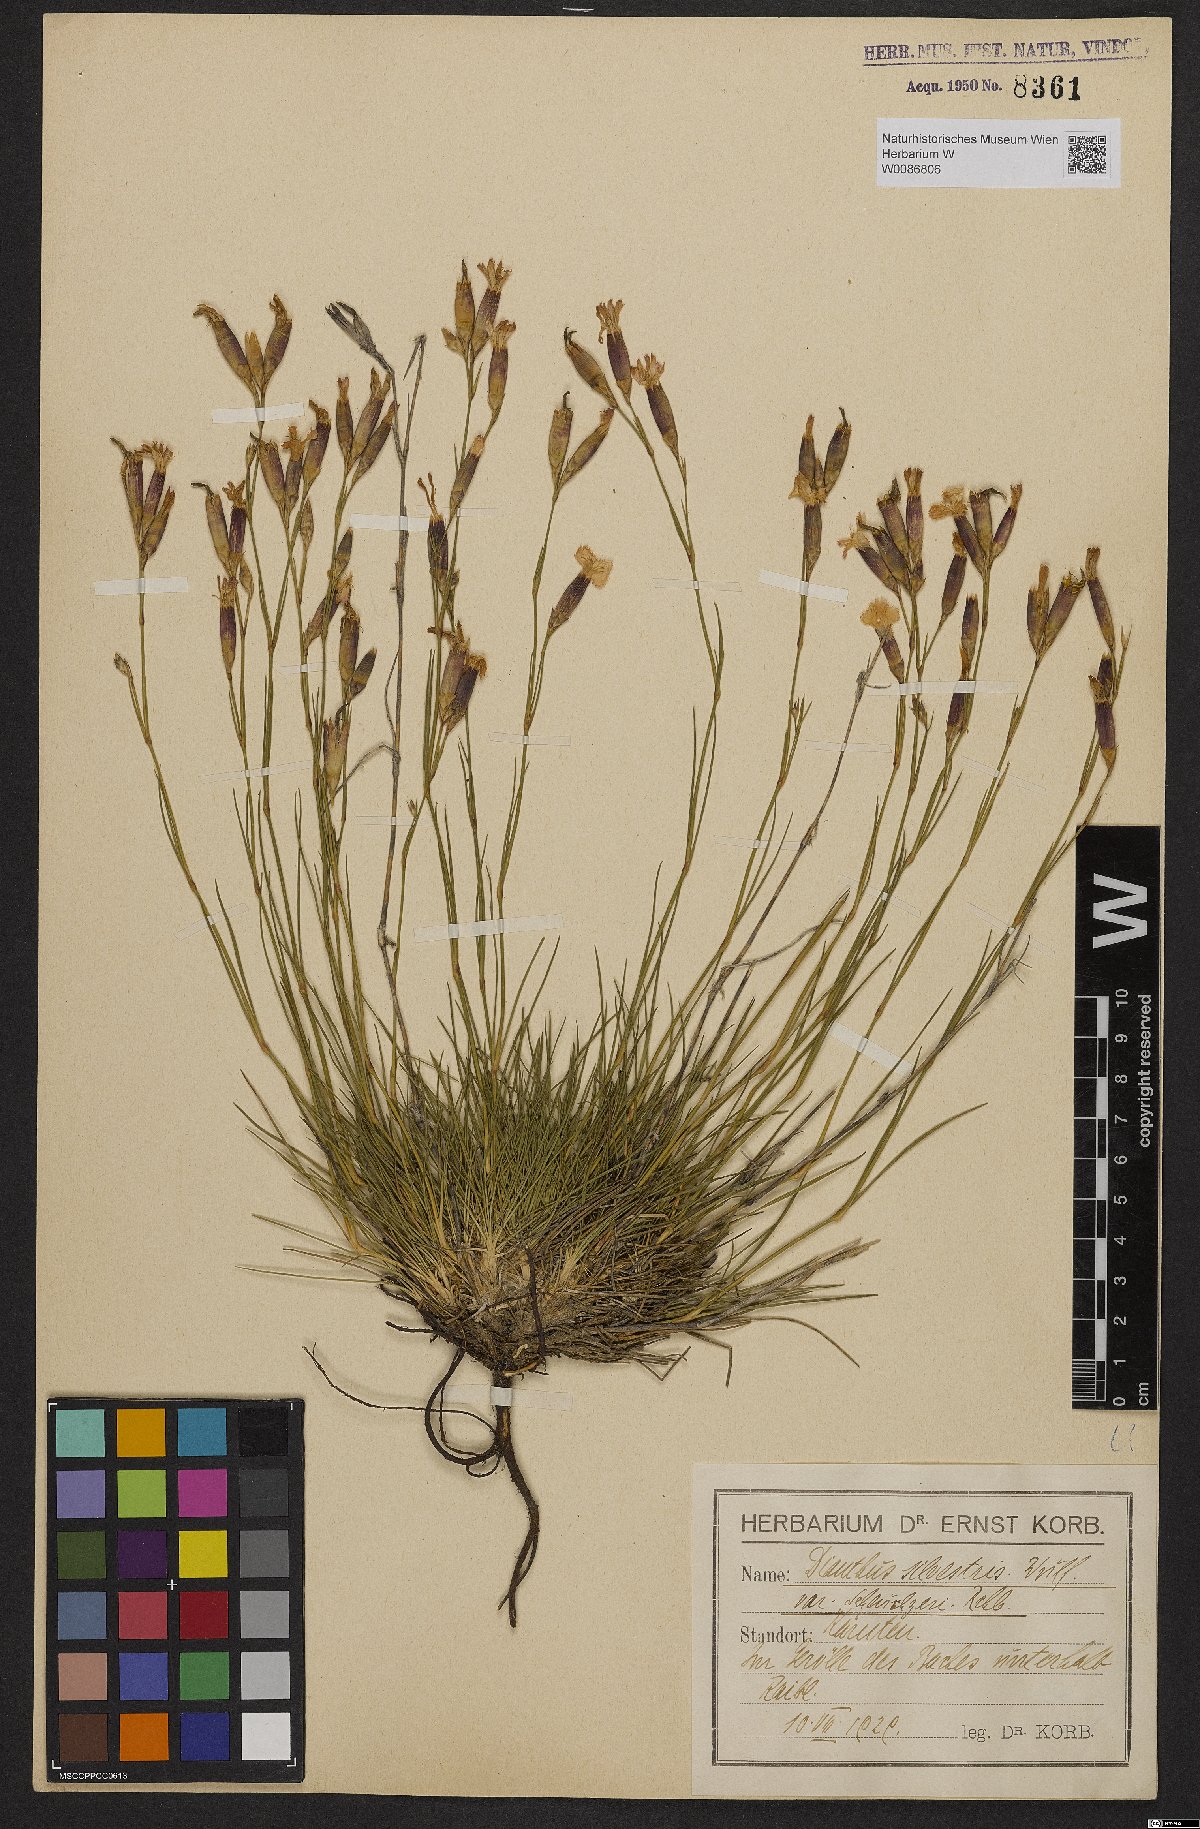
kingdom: Plantae
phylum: Tracheophyta
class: Magnoliopsida
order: Caryophyllales
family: Caryophyllaceae
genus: Dianthus
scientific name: Dianthus sylvestris
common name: Wood pink
